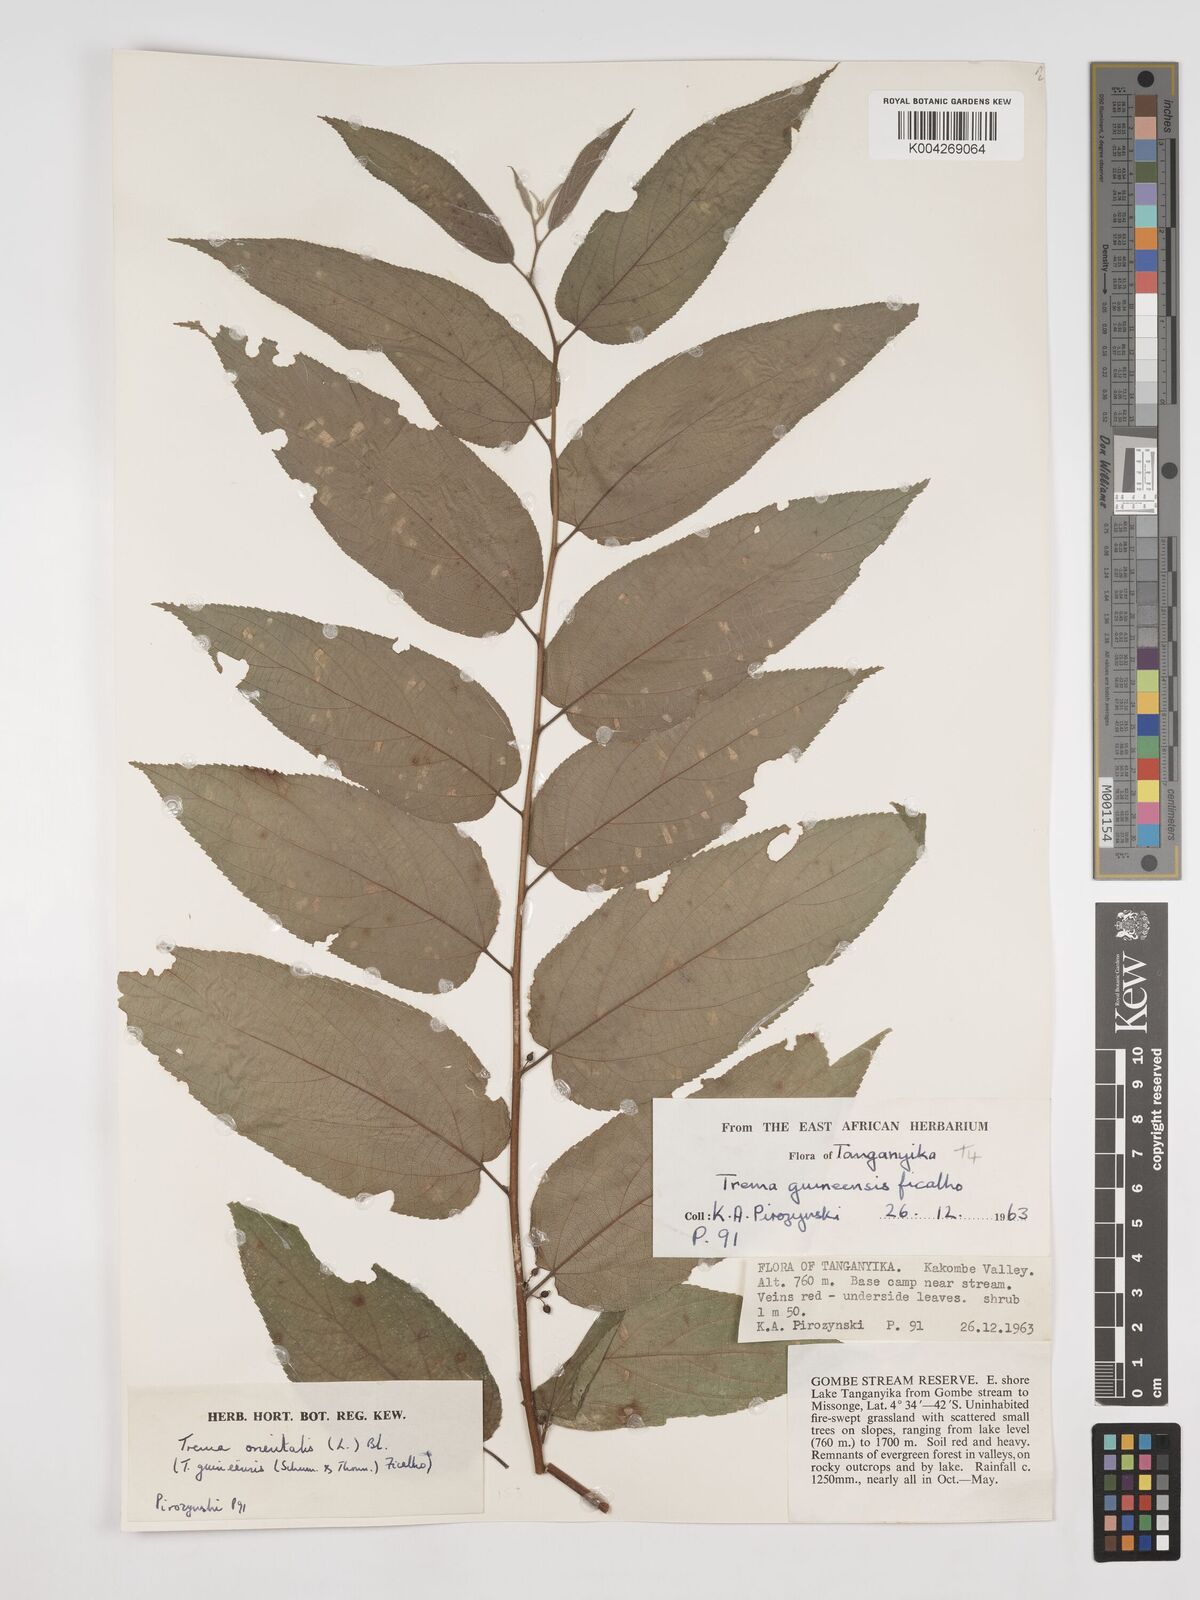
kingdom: Plantae
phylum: Tracheophyta
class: Magnoliopsida
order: Rosales
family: Cannabaceae
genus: Trema
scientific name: Trema orientale
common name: Indian charcoal tree
